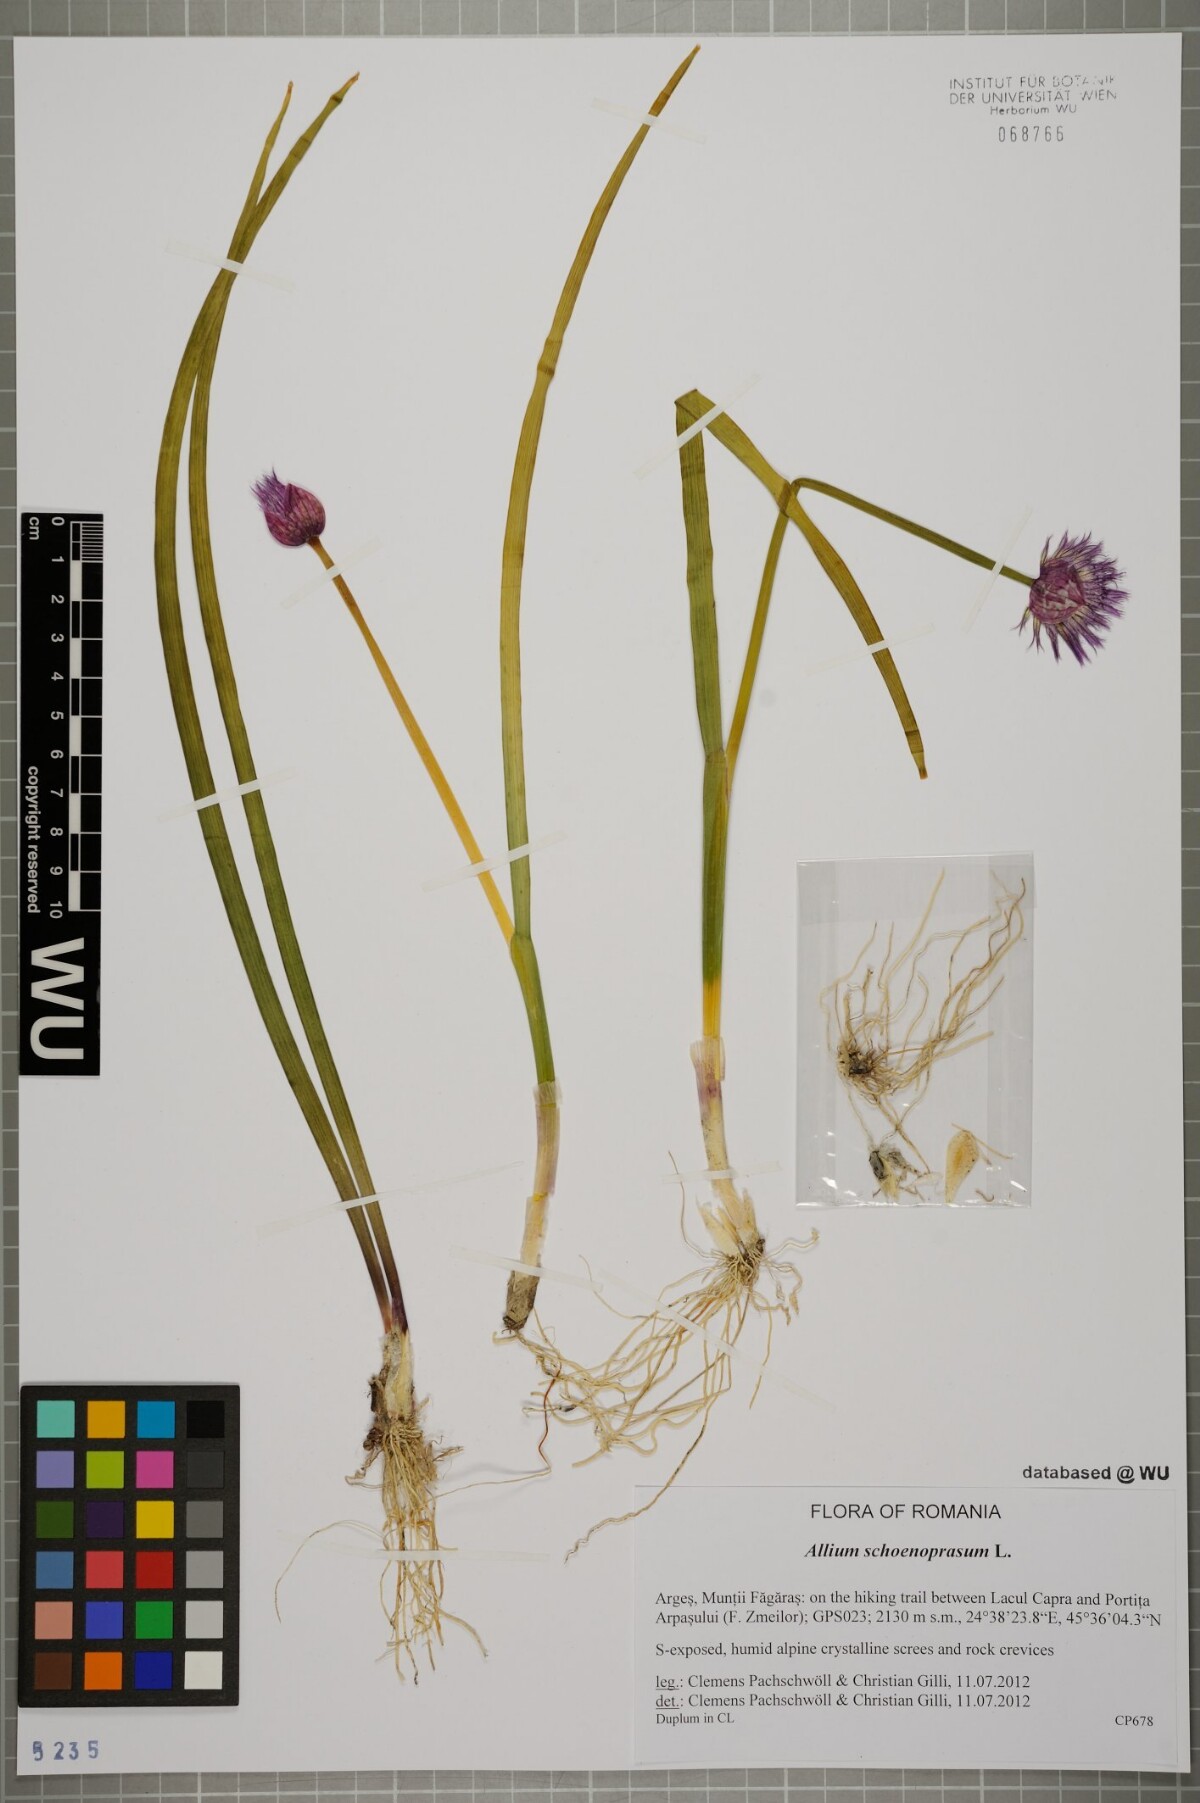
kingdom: Plantae
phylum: Tracheophyta
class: Liliopsida
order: Asparagales
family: Amaryllidaceae
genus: Allium
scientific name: Allium schoenoprasum
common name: Chives
